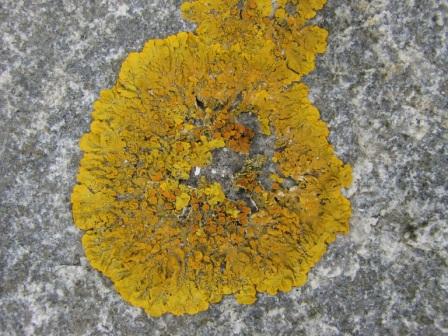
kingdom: Fungi
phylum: Ascomycota
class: Lecanoromycetes
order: Teloschistales
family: Teloschistaceae
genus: Xanthoria
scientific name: Xanthoria parietina
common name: almindelig væggelav
